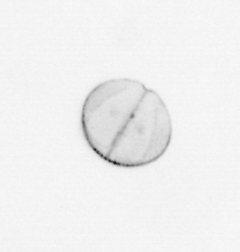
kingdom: Chromista
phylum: Ochrophyta
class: Bacillariophyceae
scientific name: Bacillariophyceae
